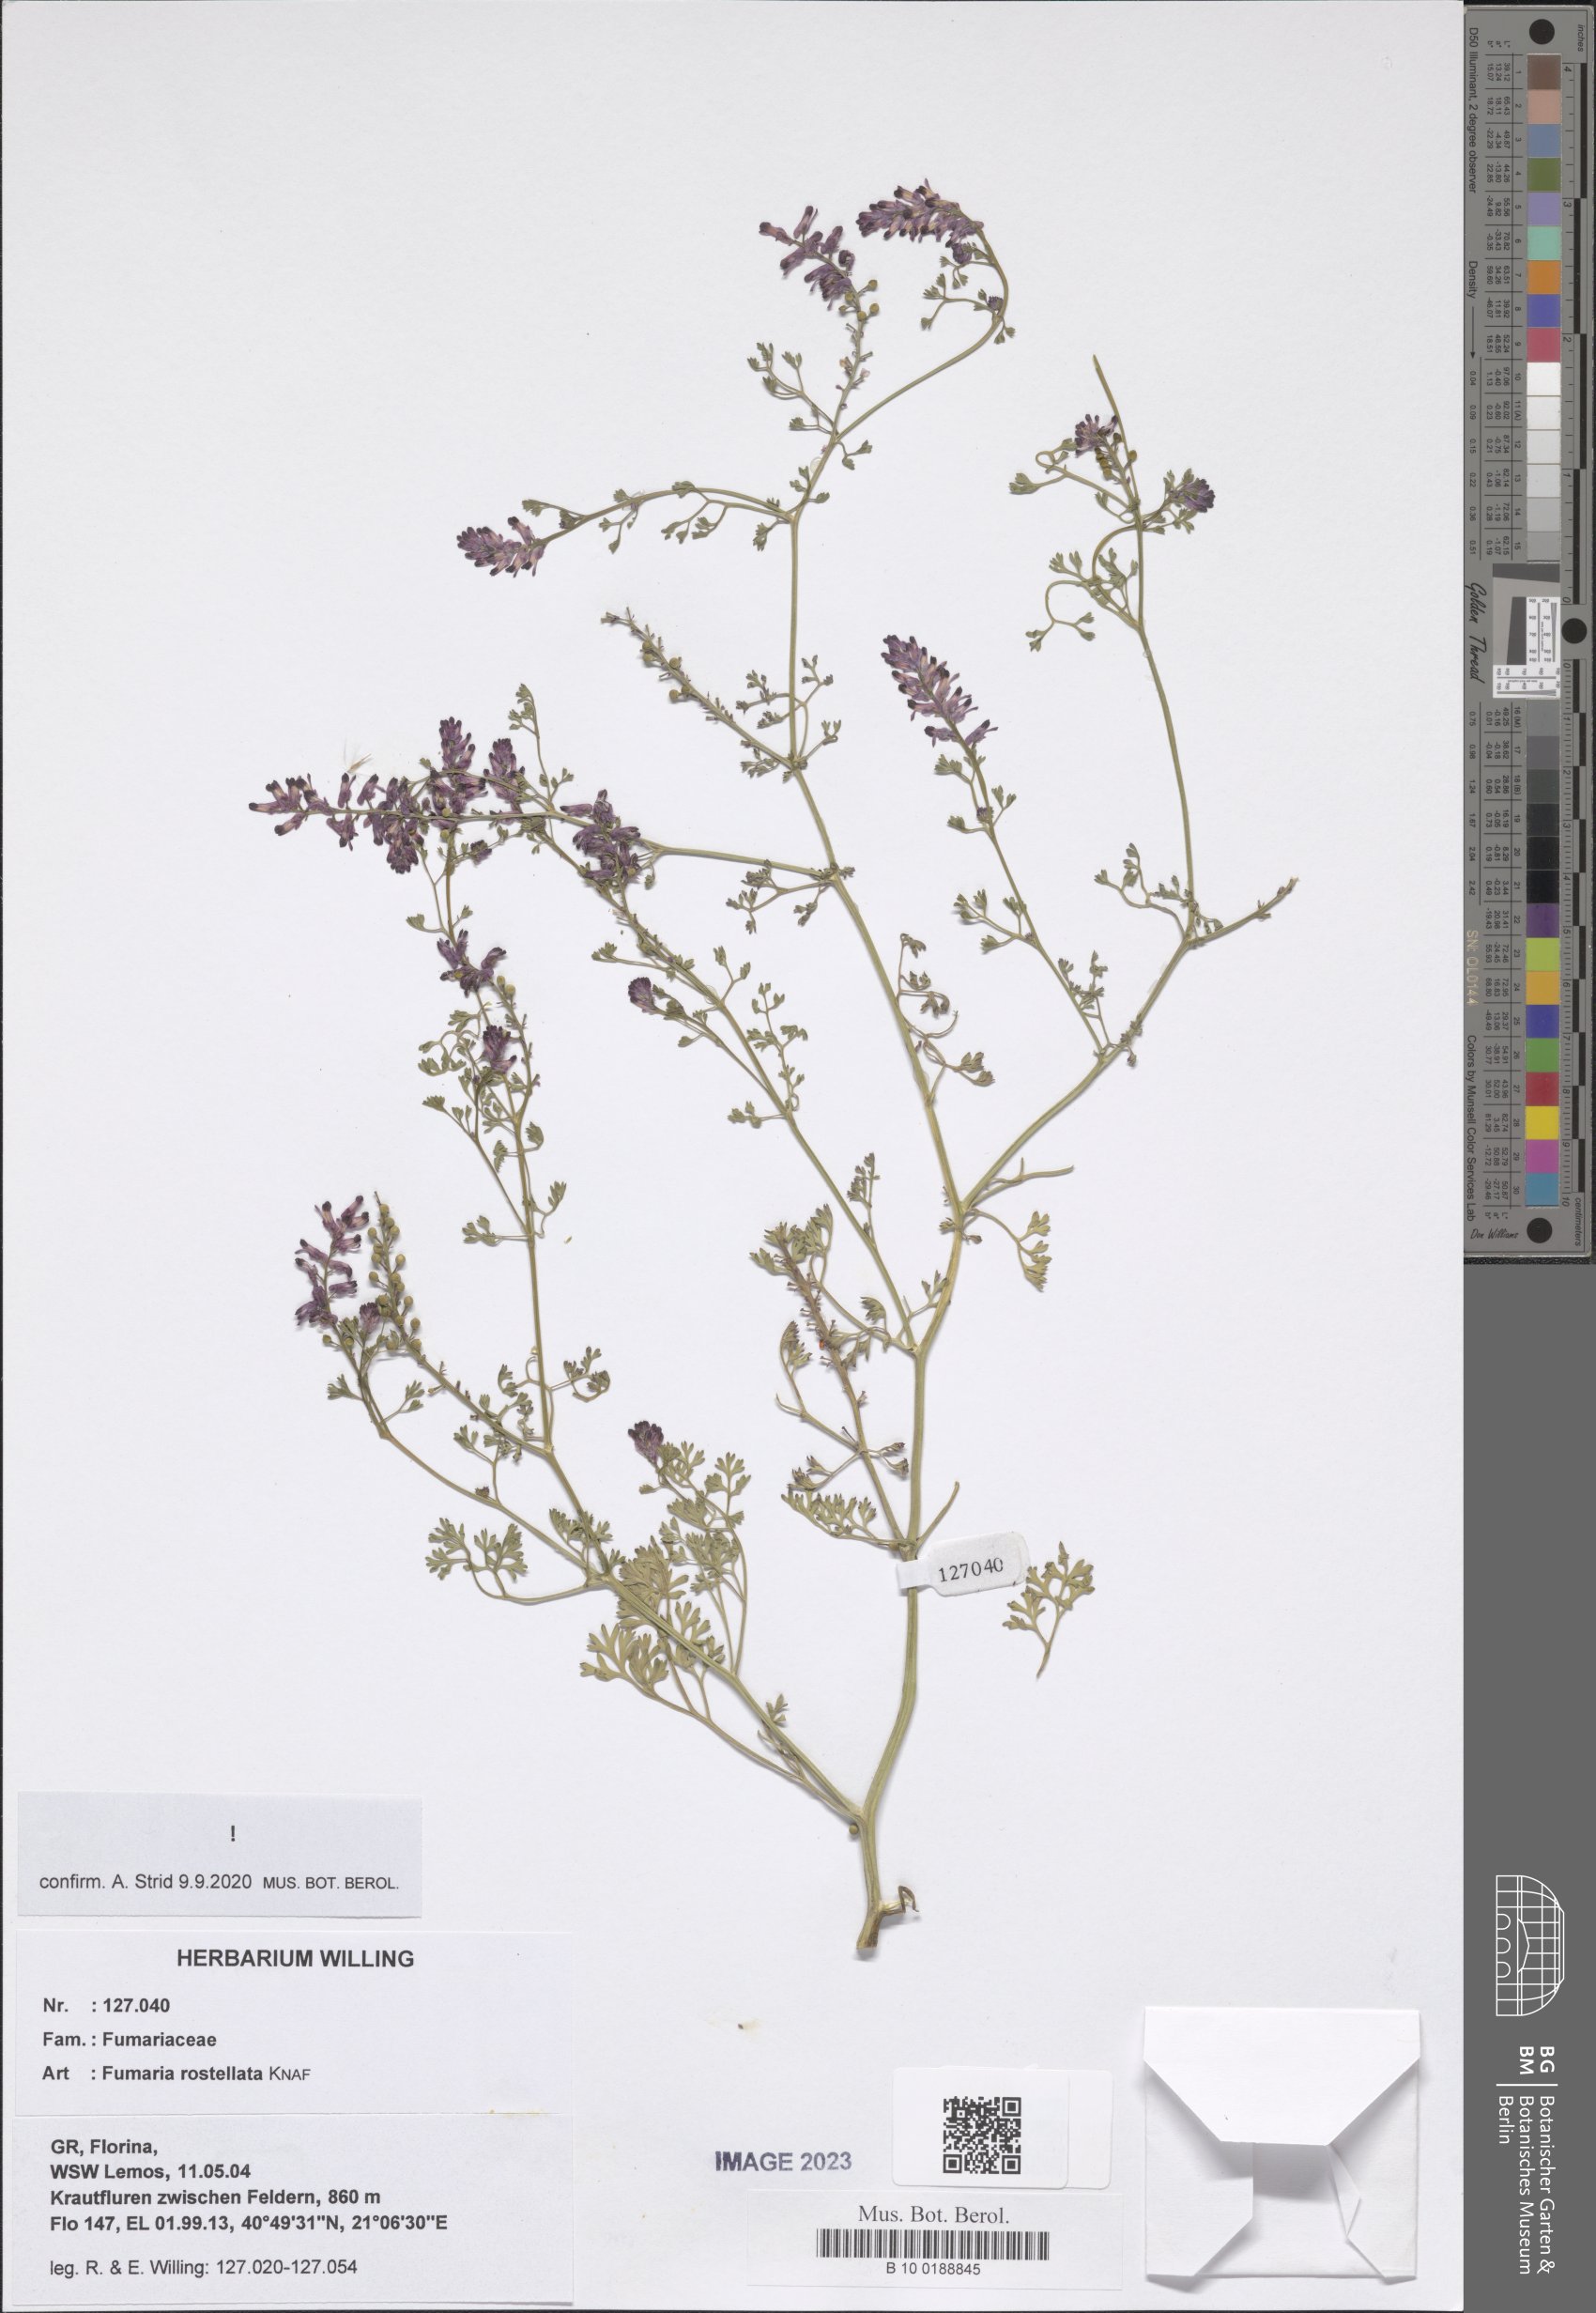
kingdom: Plantae
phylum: Tracheophyta
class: Magnoliopsida
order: Ranunculales
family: Papaveraceae
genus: Fumaria
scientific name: Fumaria rostellata
